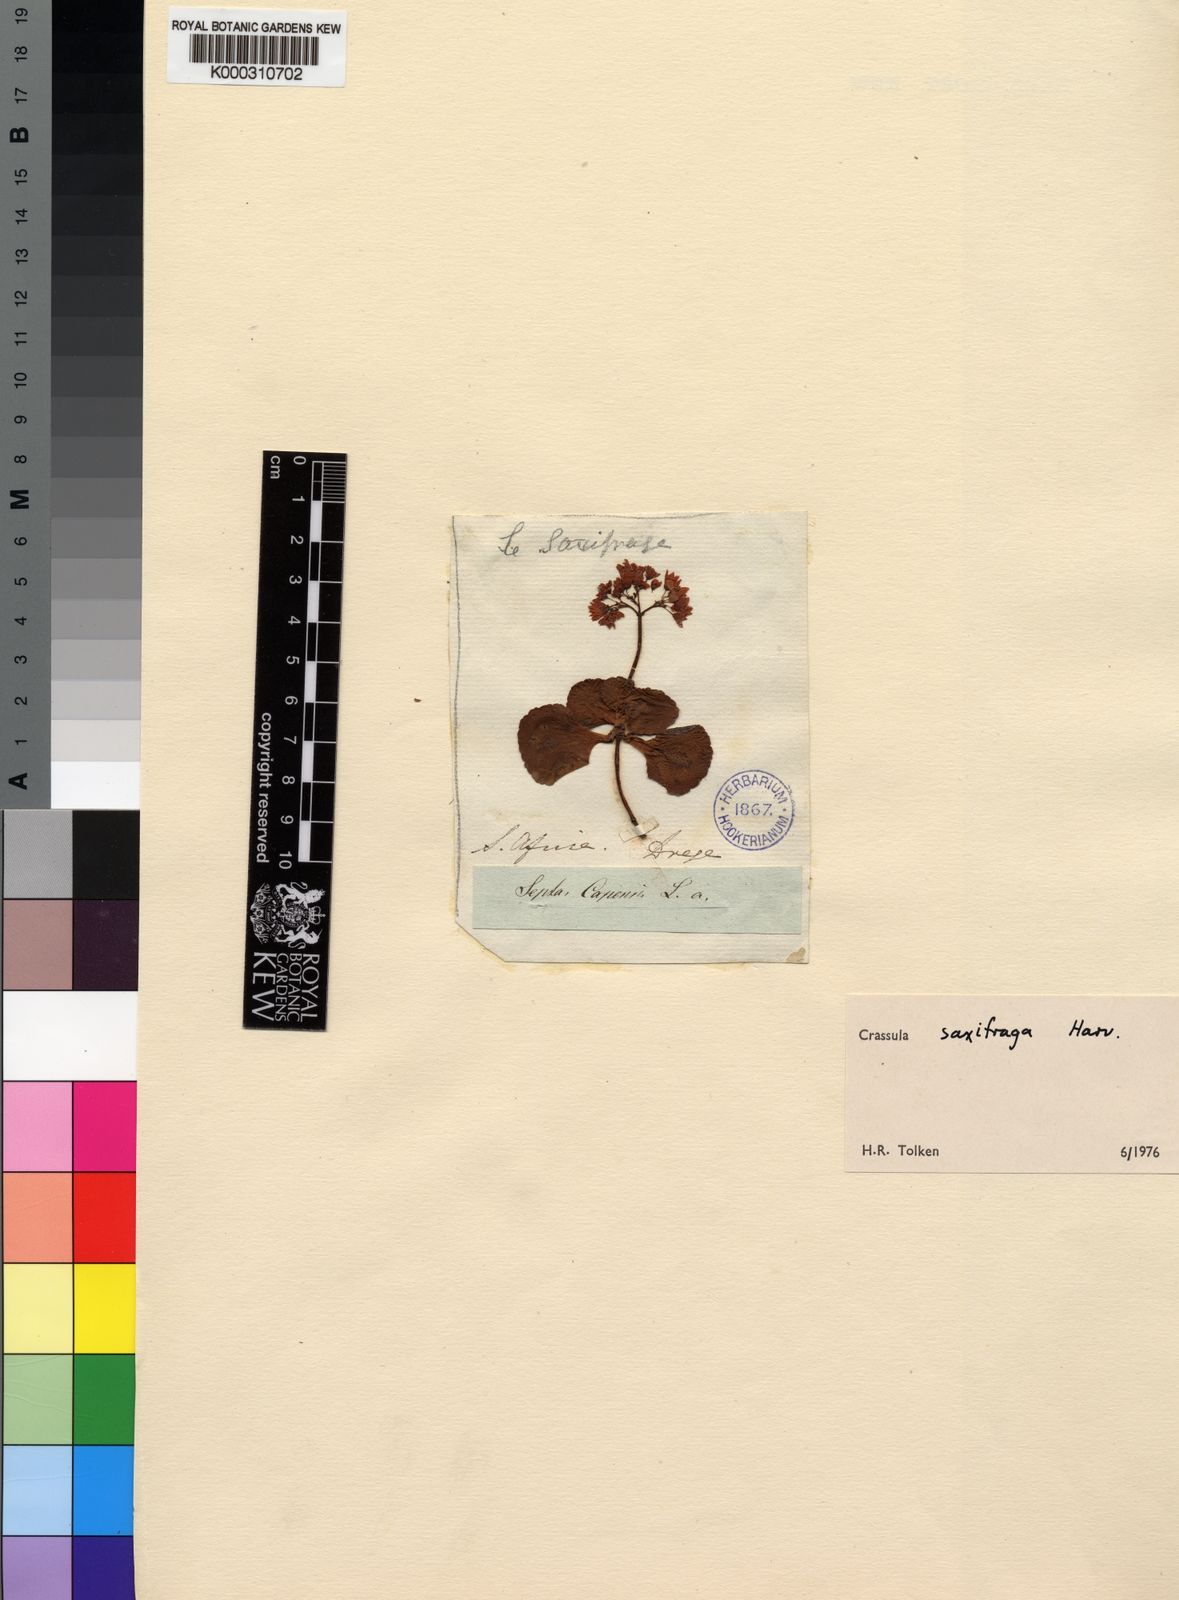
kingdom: Plantae
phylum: Tracheophyta
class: Magnoliopsida
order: Saxifragales
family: Crassulaceae
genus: Crassula
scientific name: Crassula saxifraga
